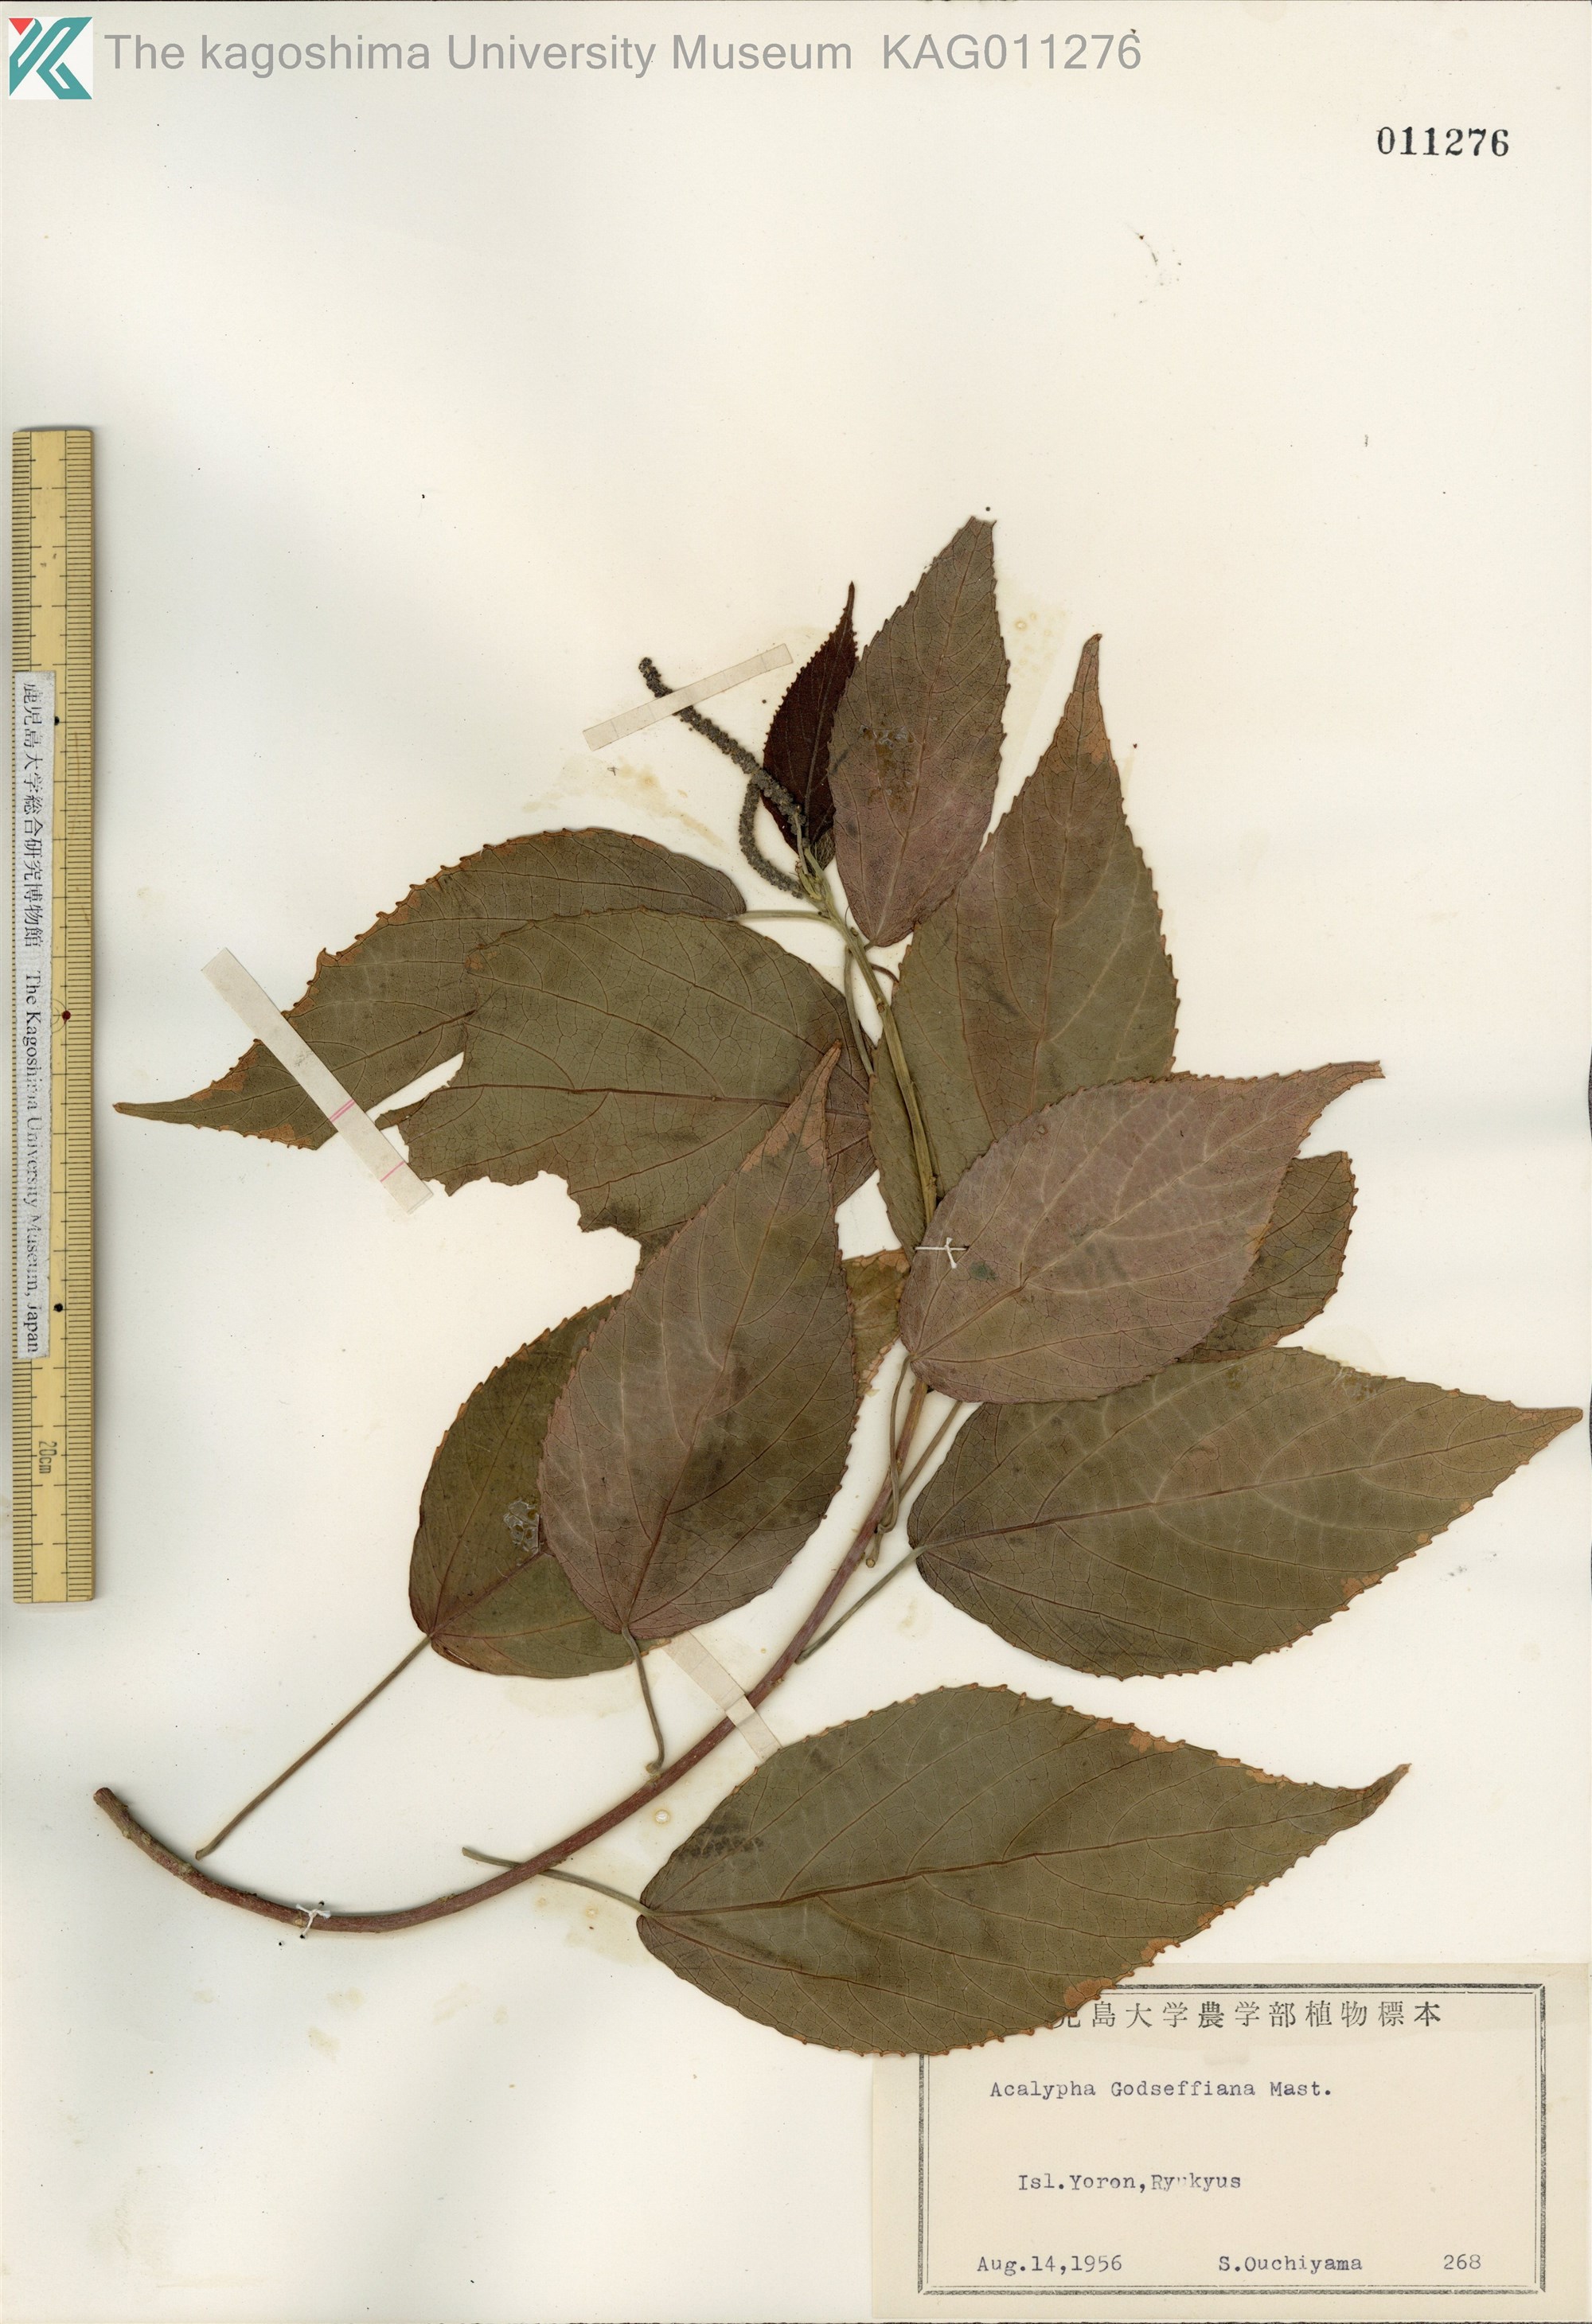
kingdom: Plantae
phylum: Tracheophyta
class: Magnoliopsida
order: Malpighiales
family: Euphorbiaceae
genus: Acalypha
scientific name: Acalypha wilkesiana
